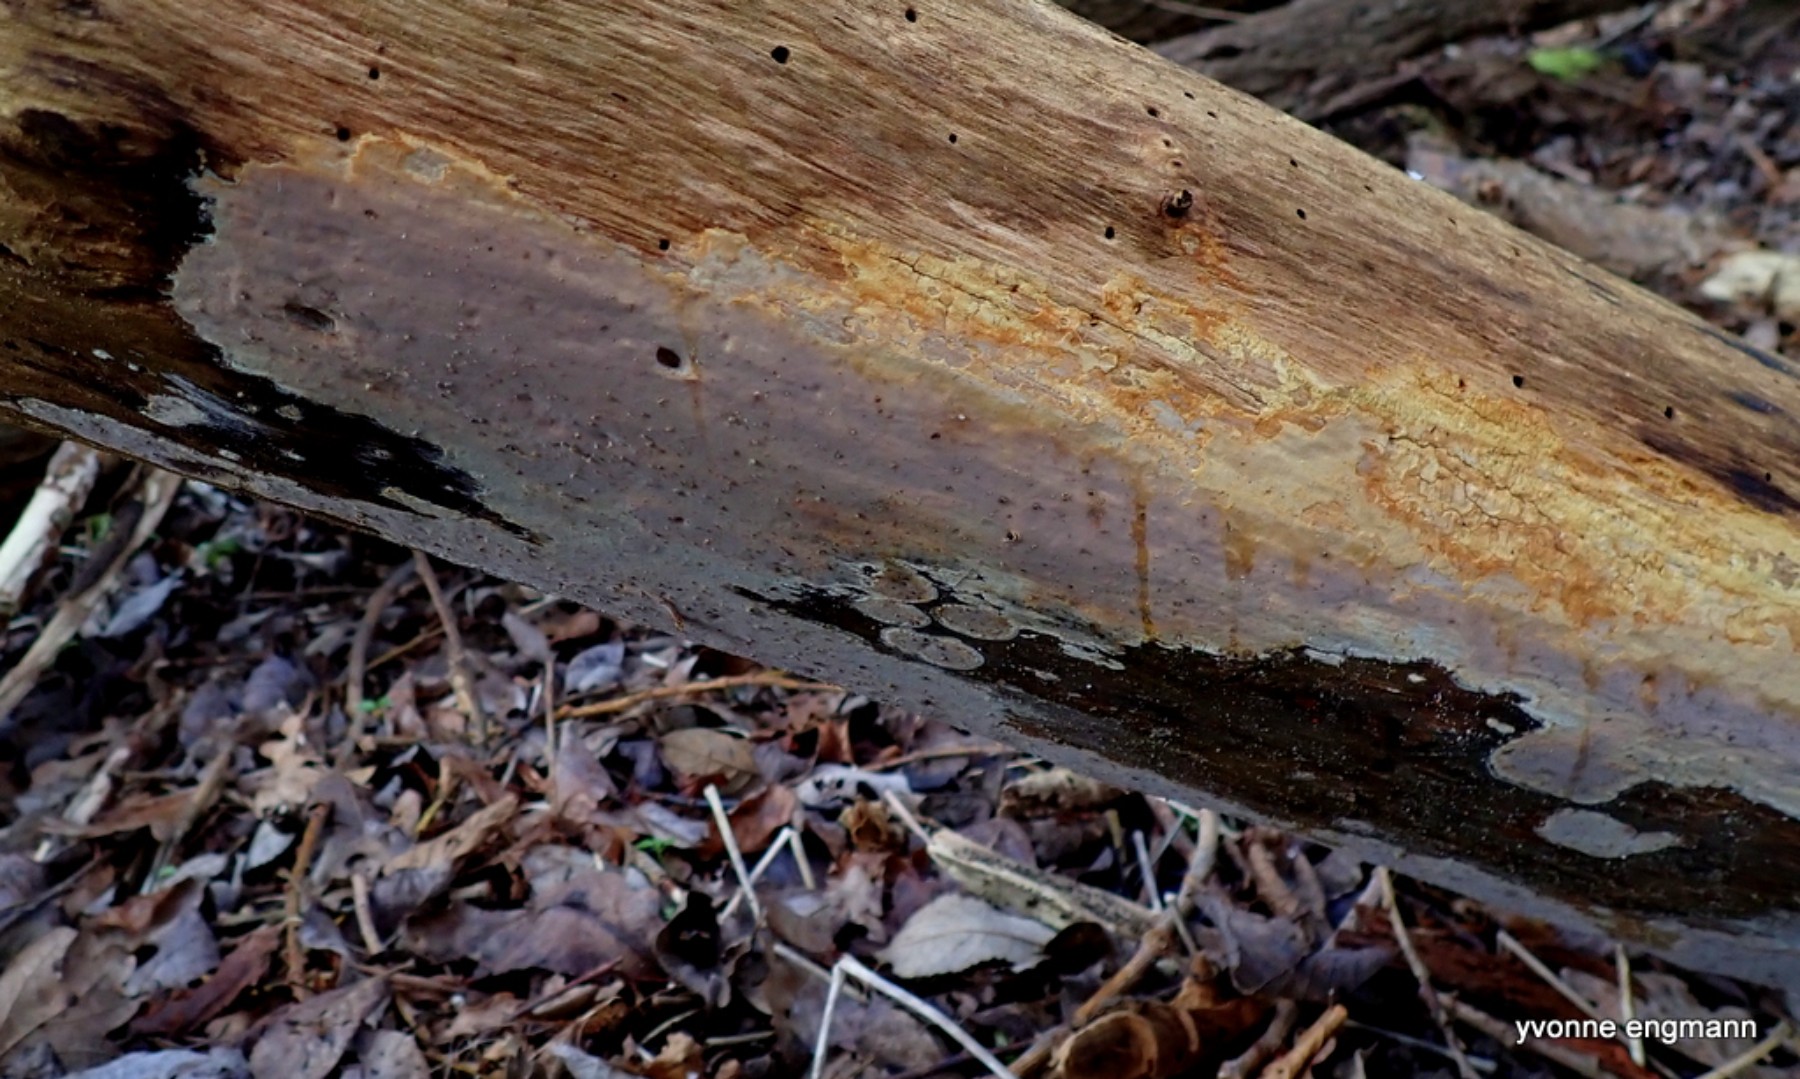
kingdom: Fungi
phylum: Basidiomycota
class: Agaricomycetes
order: Russulales
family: Peniophoraceae
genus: Scytinostroma
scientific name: Scytinostroma hemidichophyticum
